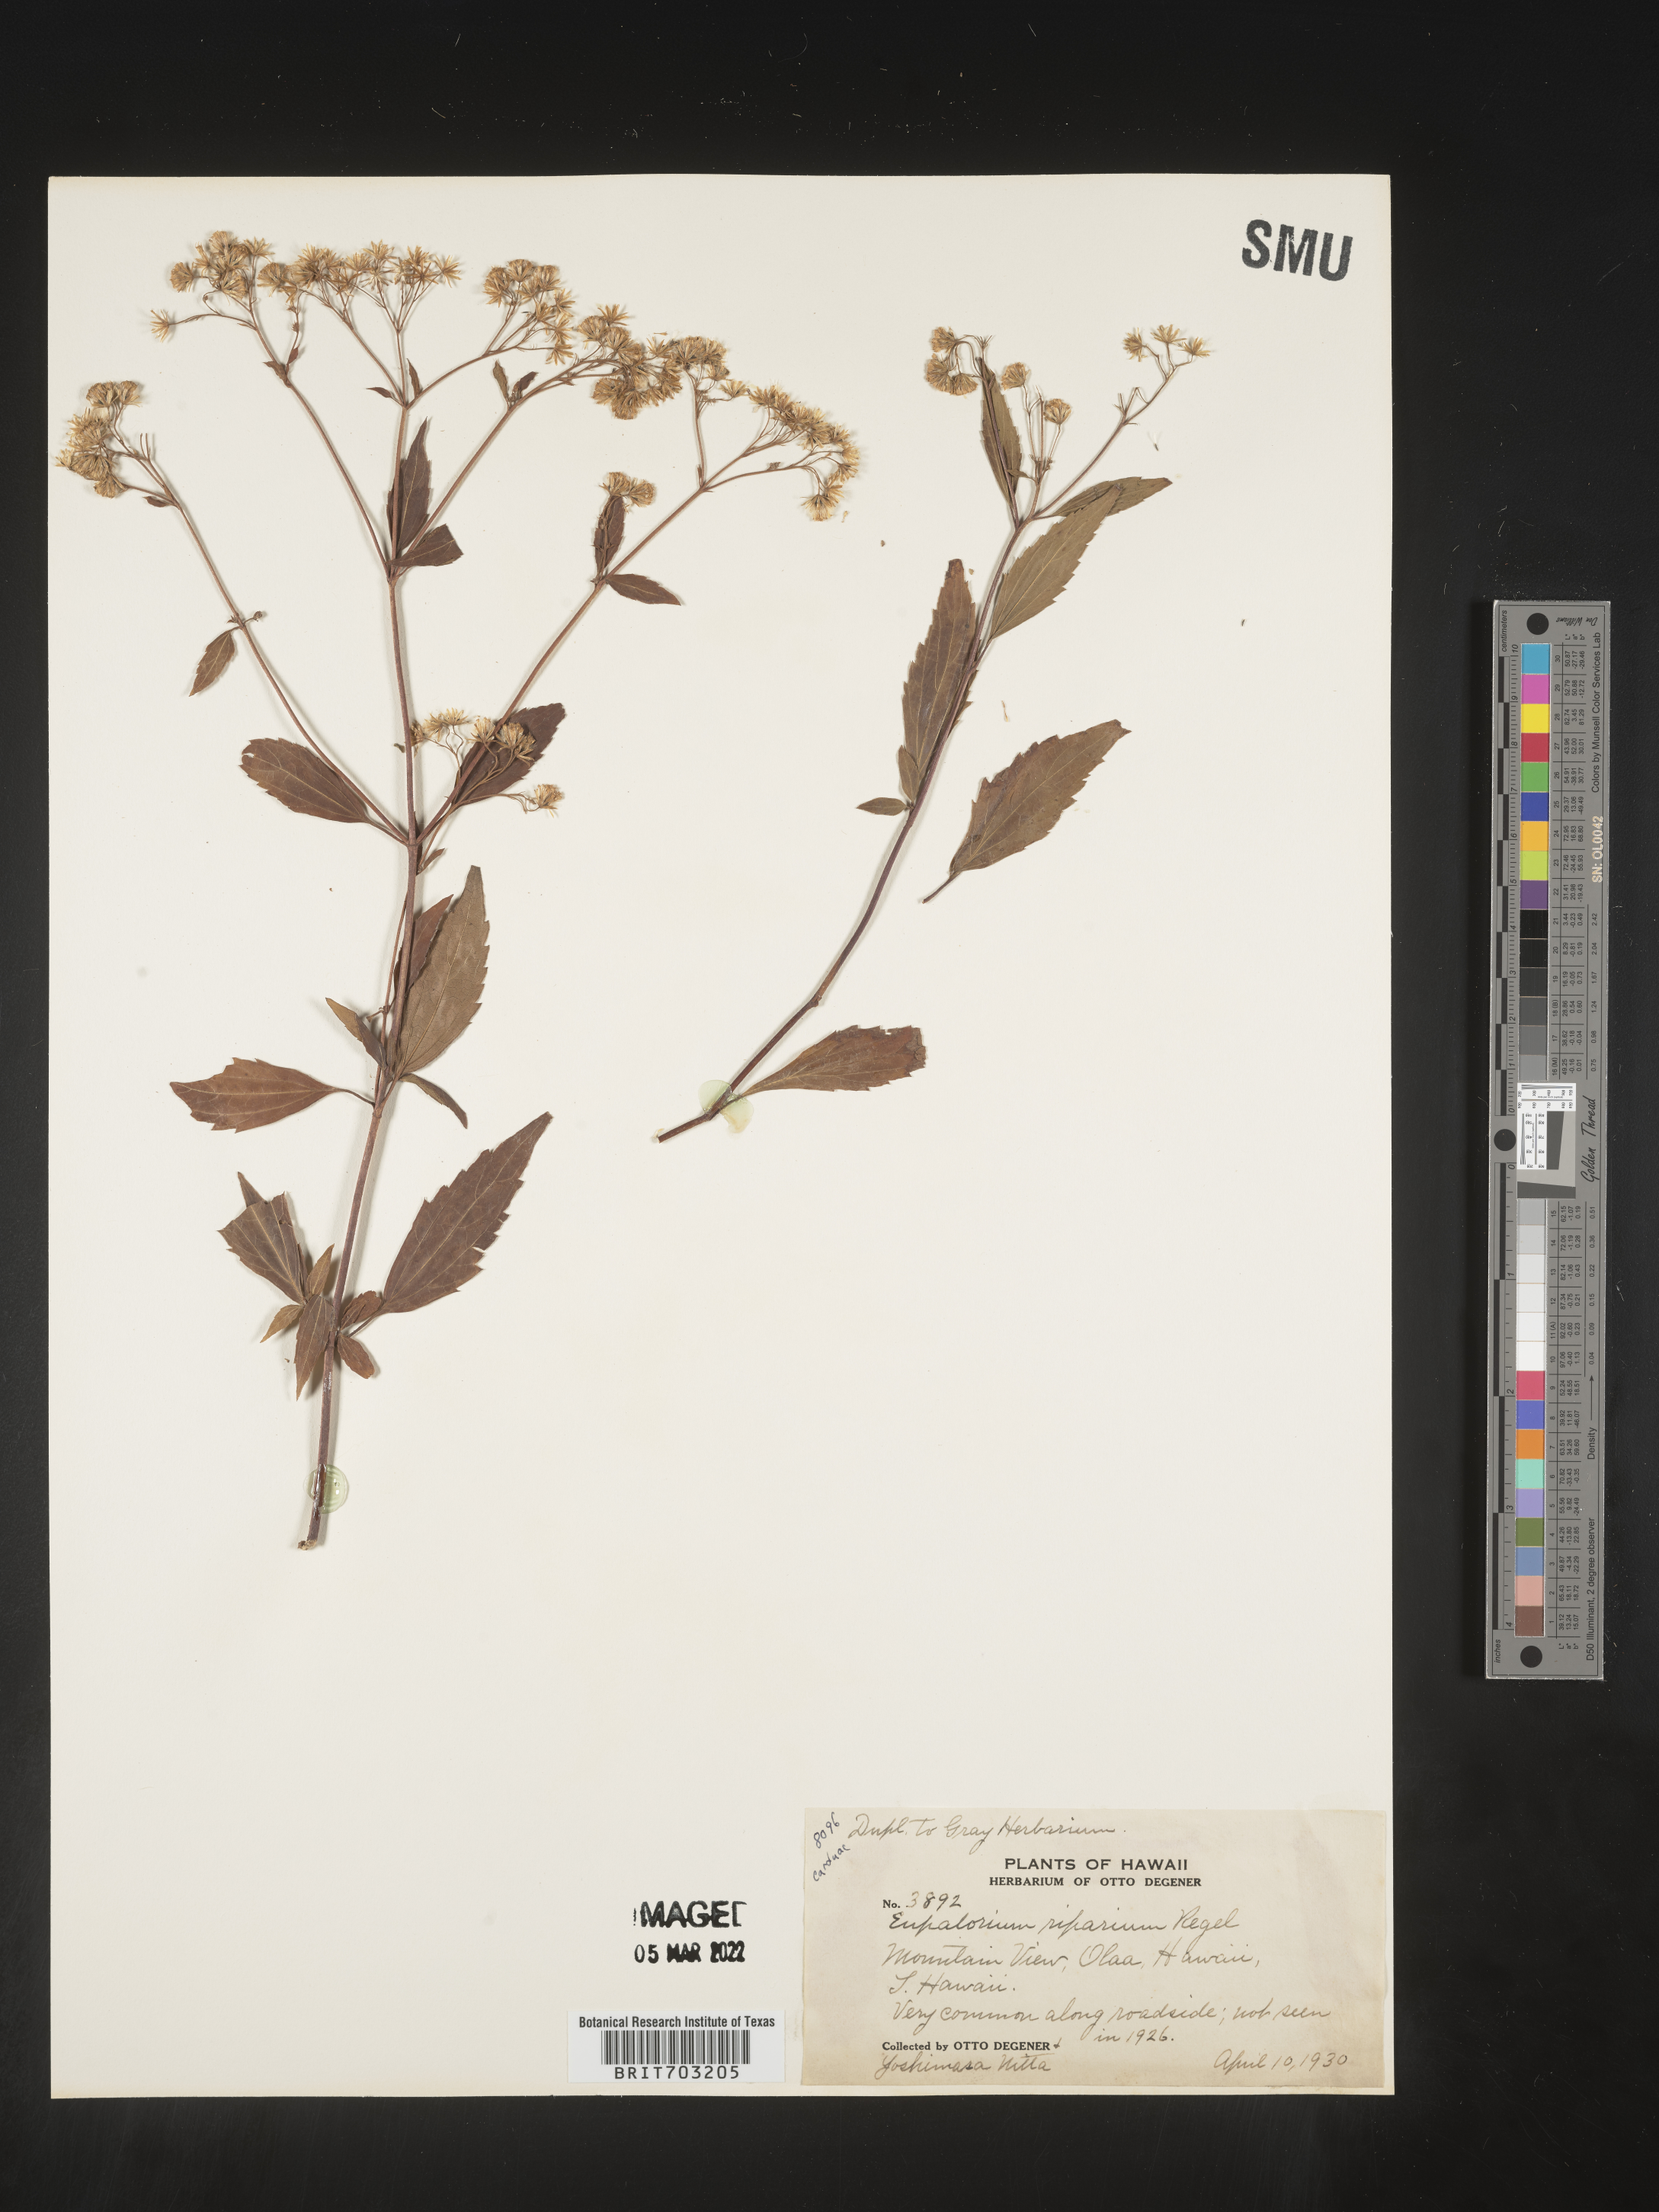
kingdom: Plantae
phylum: Tracheophyta
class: Magnoliopsida
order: Asterales
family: Asteraceae
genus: Eupatorium
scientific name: Eupatorium
